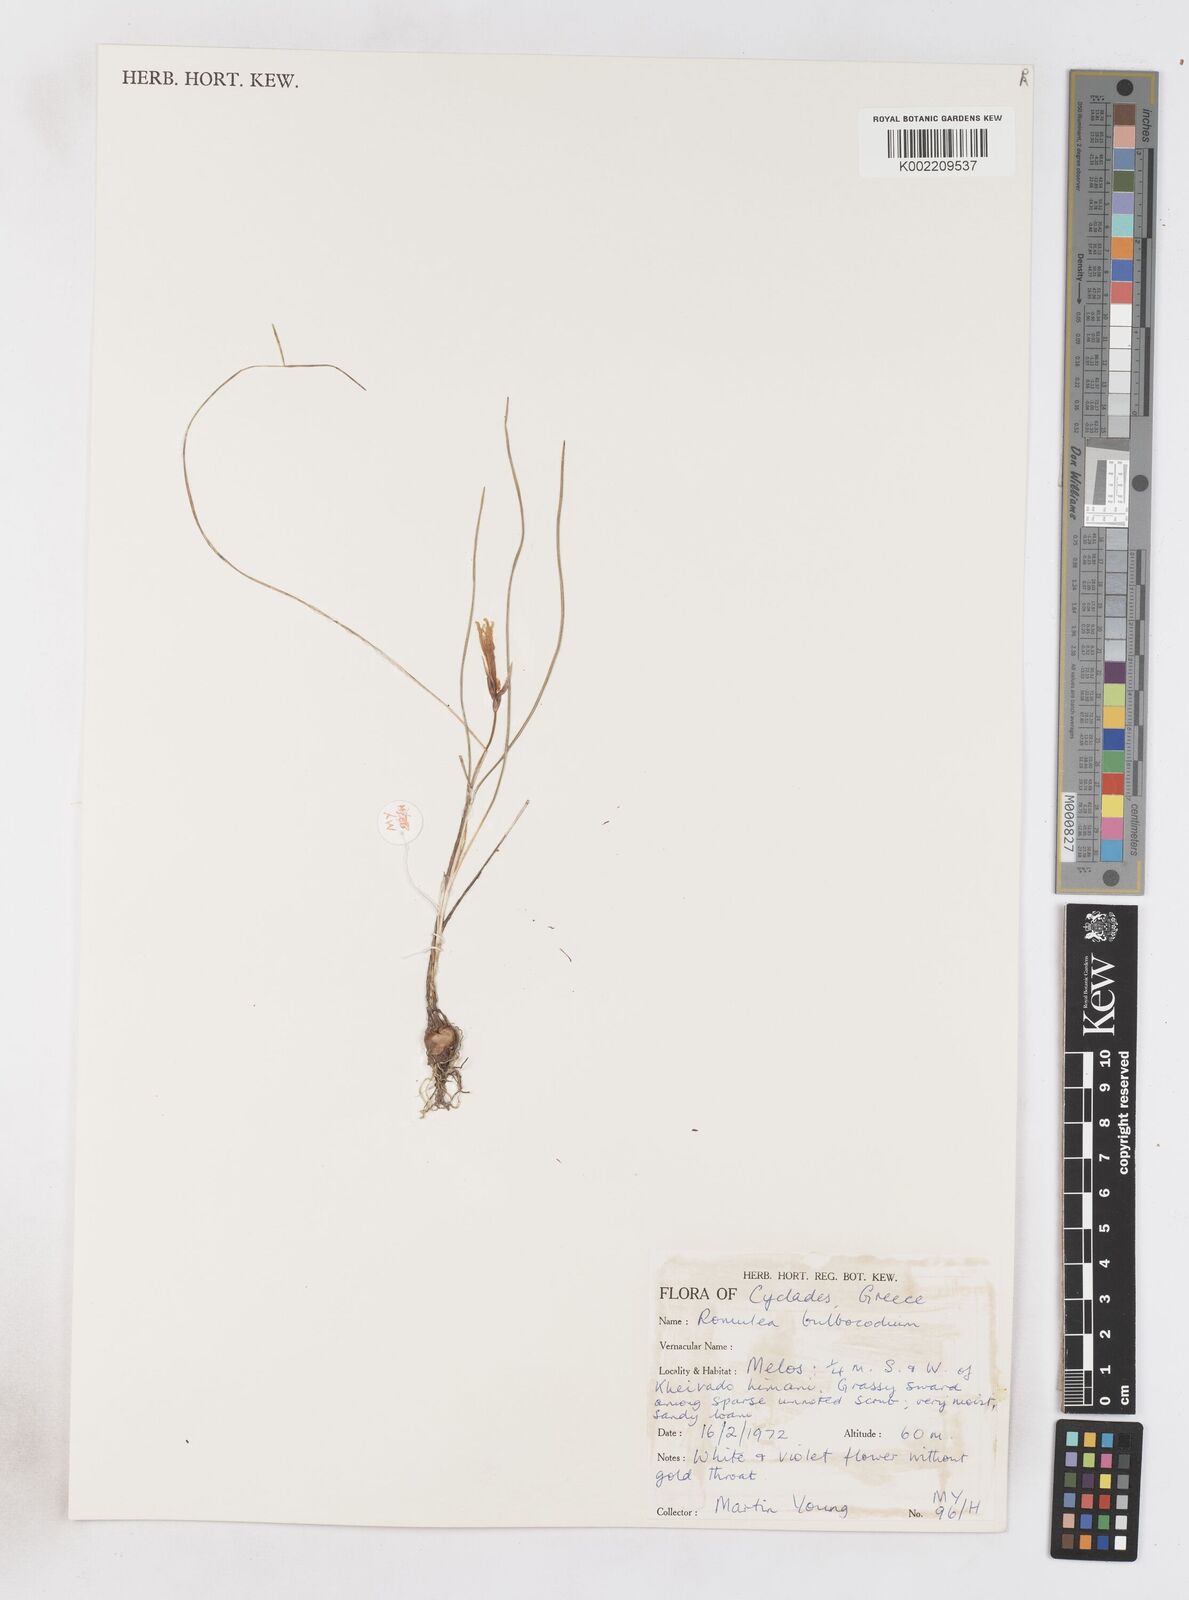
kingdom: Plantae
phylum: Tracheophyta
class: Liliopsida
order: Asparagales
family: Iridaceae
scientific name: Iridaceae
